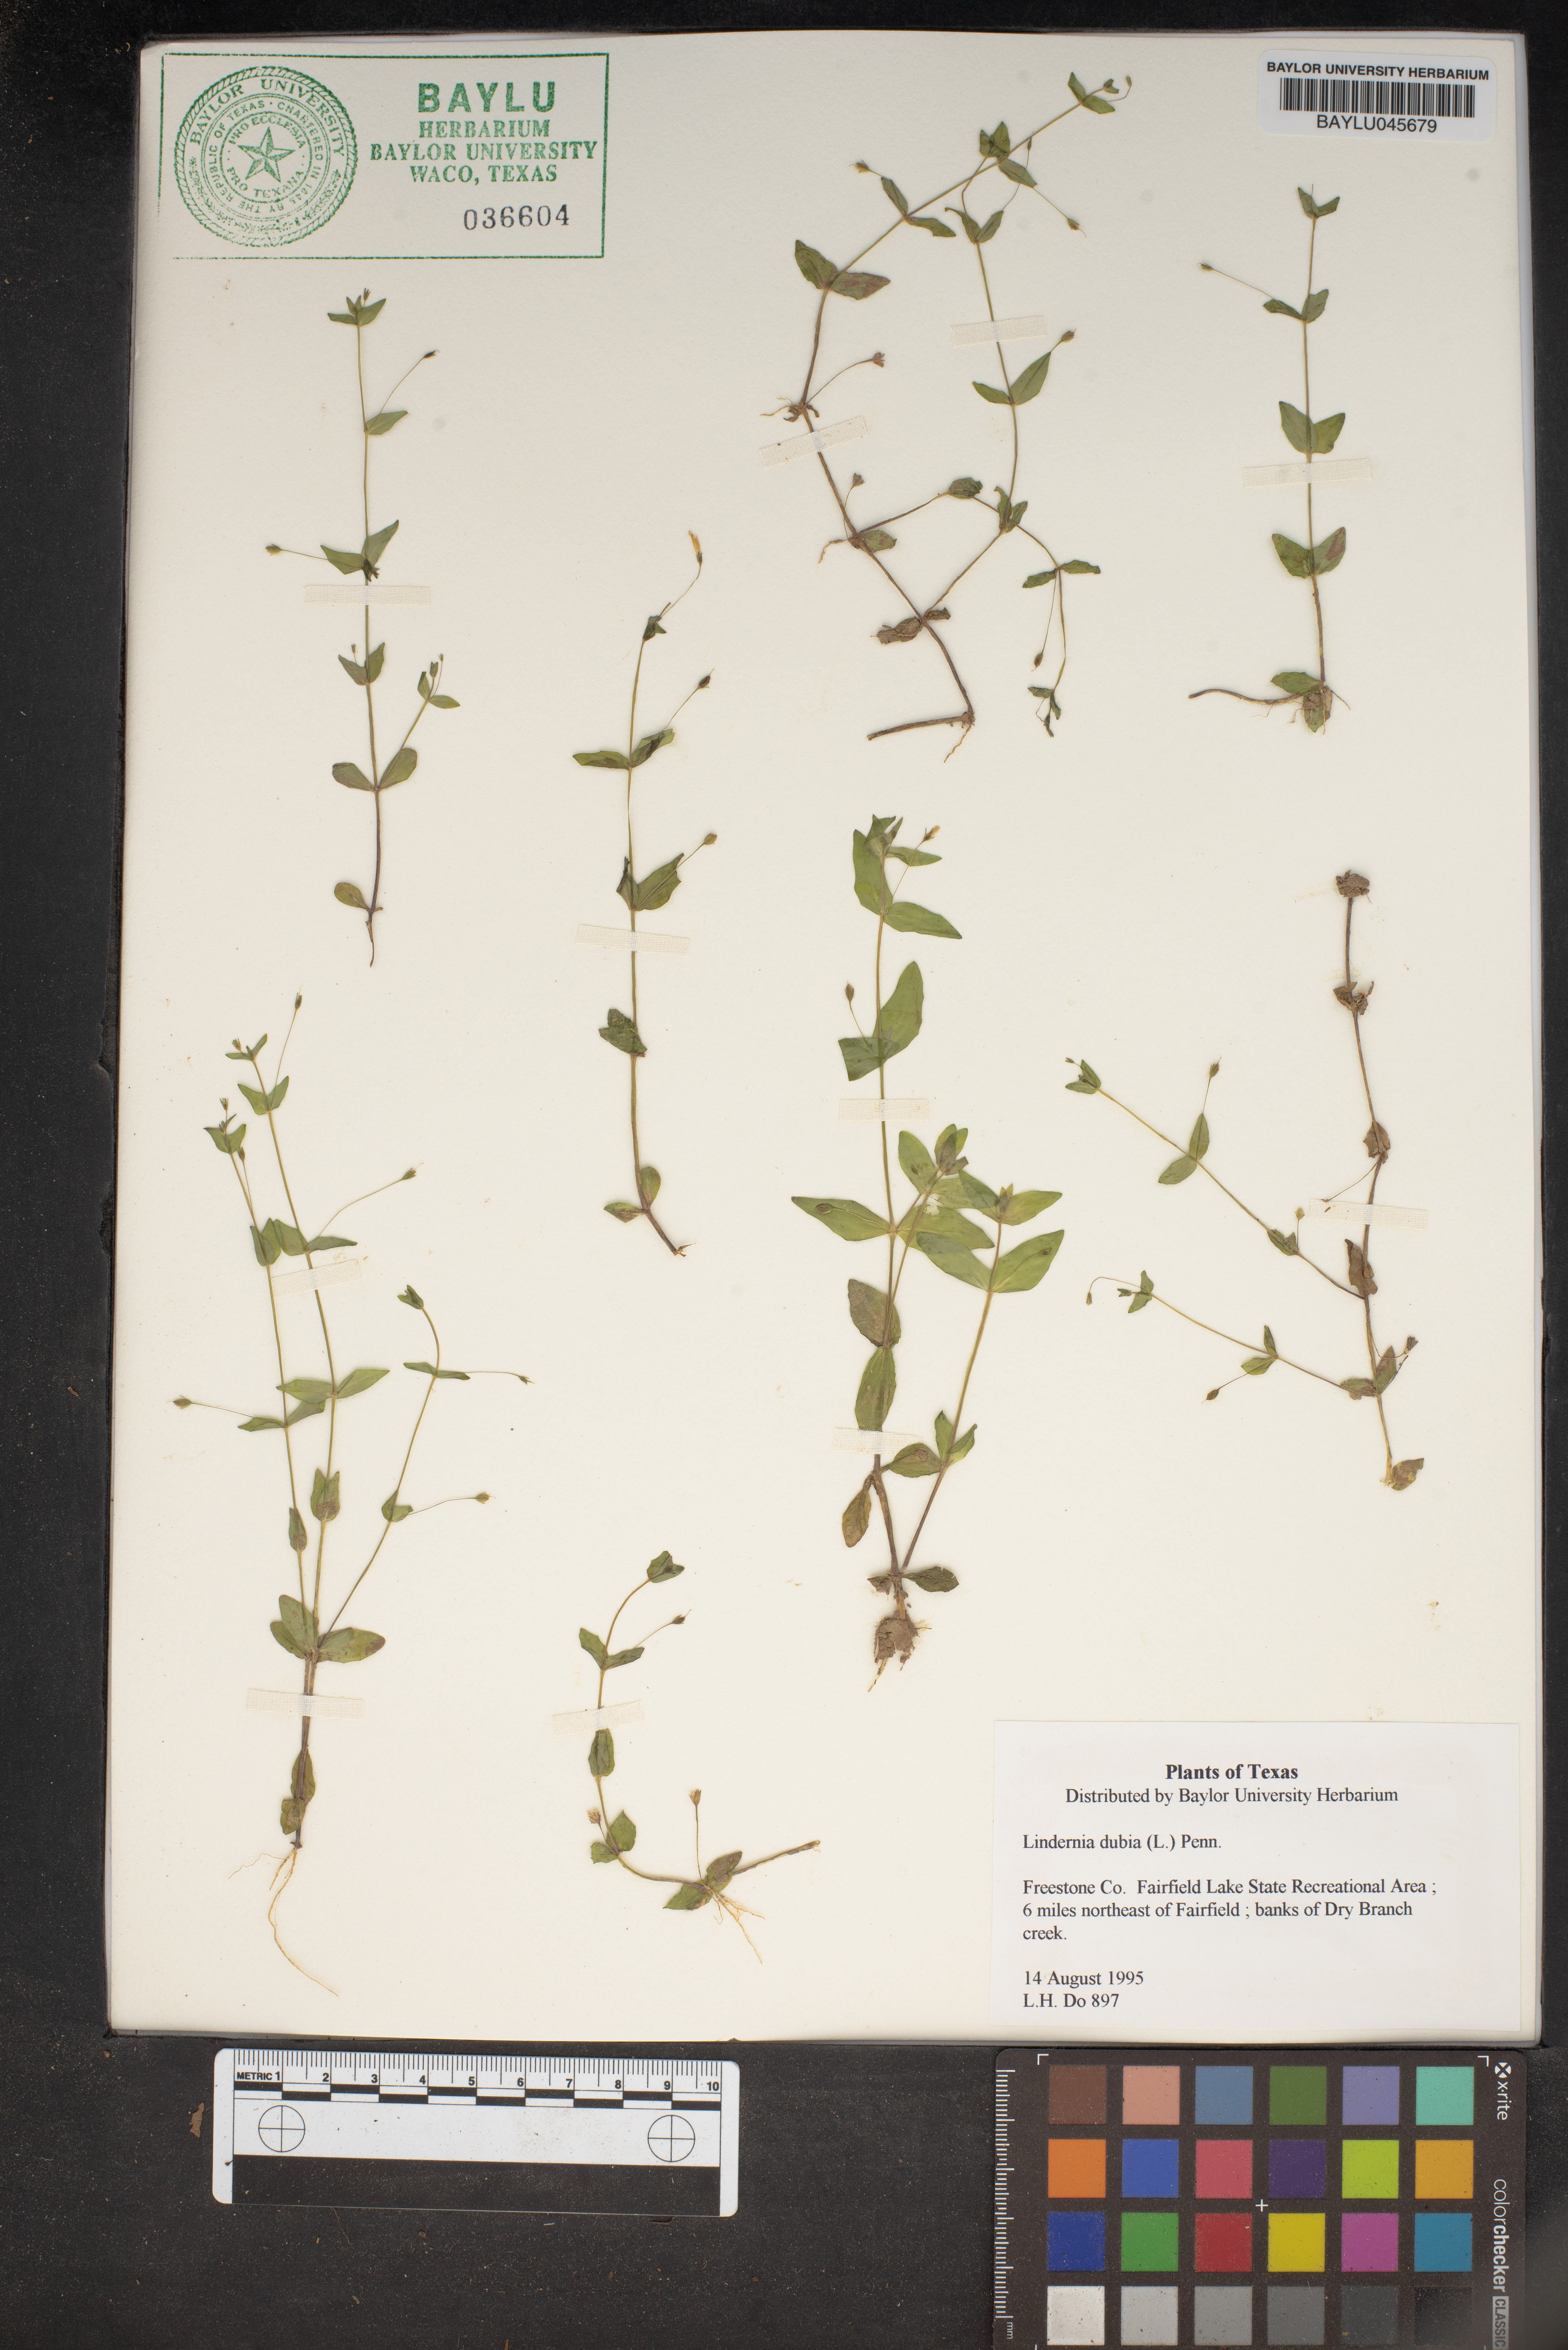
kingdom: Plantae
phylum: Tracheophyta
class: Magnoliopsida
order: Lamiales
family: Linderniaceae
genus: Lindernia
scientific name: Lindernia dubia
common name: Annual false pimpernel
